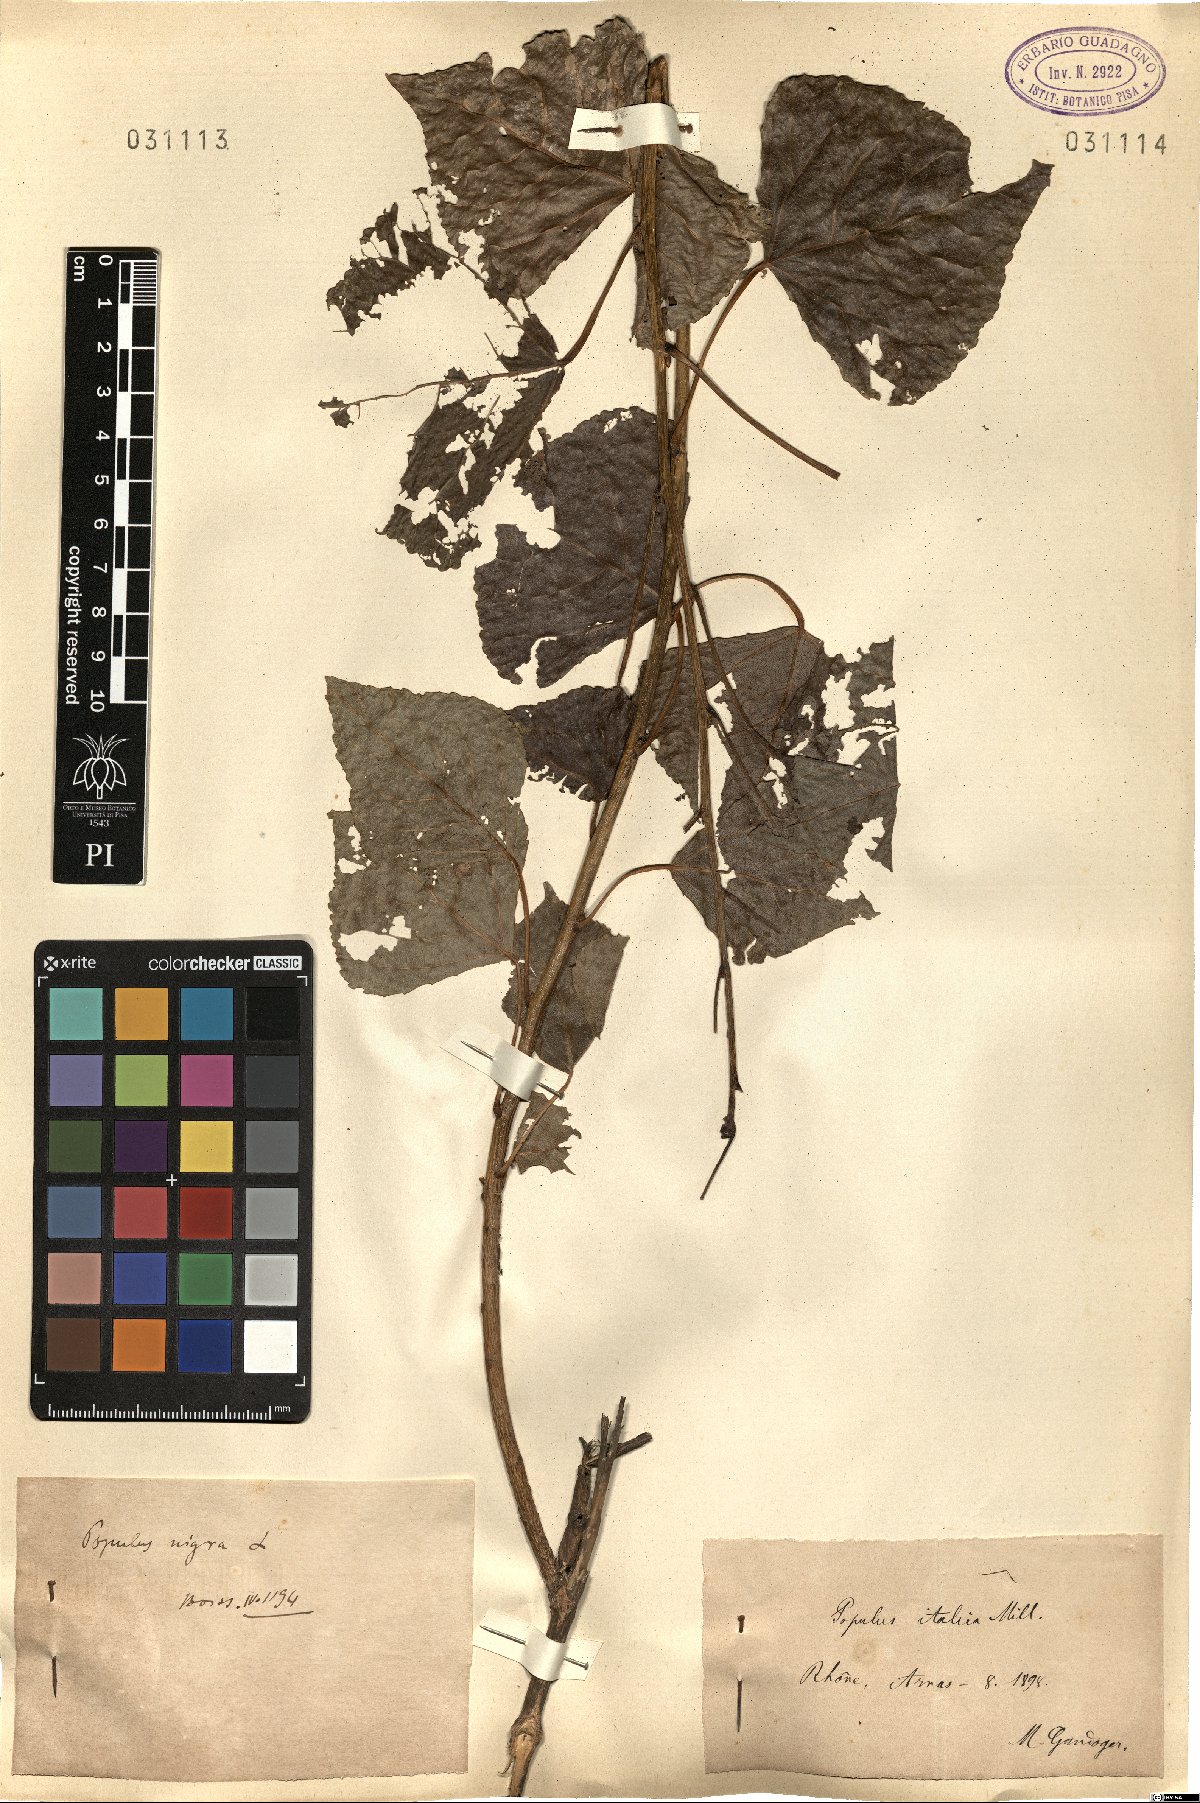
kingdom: Plantae
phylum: Tracheophyta
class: Magnoliopsida
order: Malpighiales
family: Salicaceae
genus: Populus
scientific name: Populus nigra
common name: Black poplar
